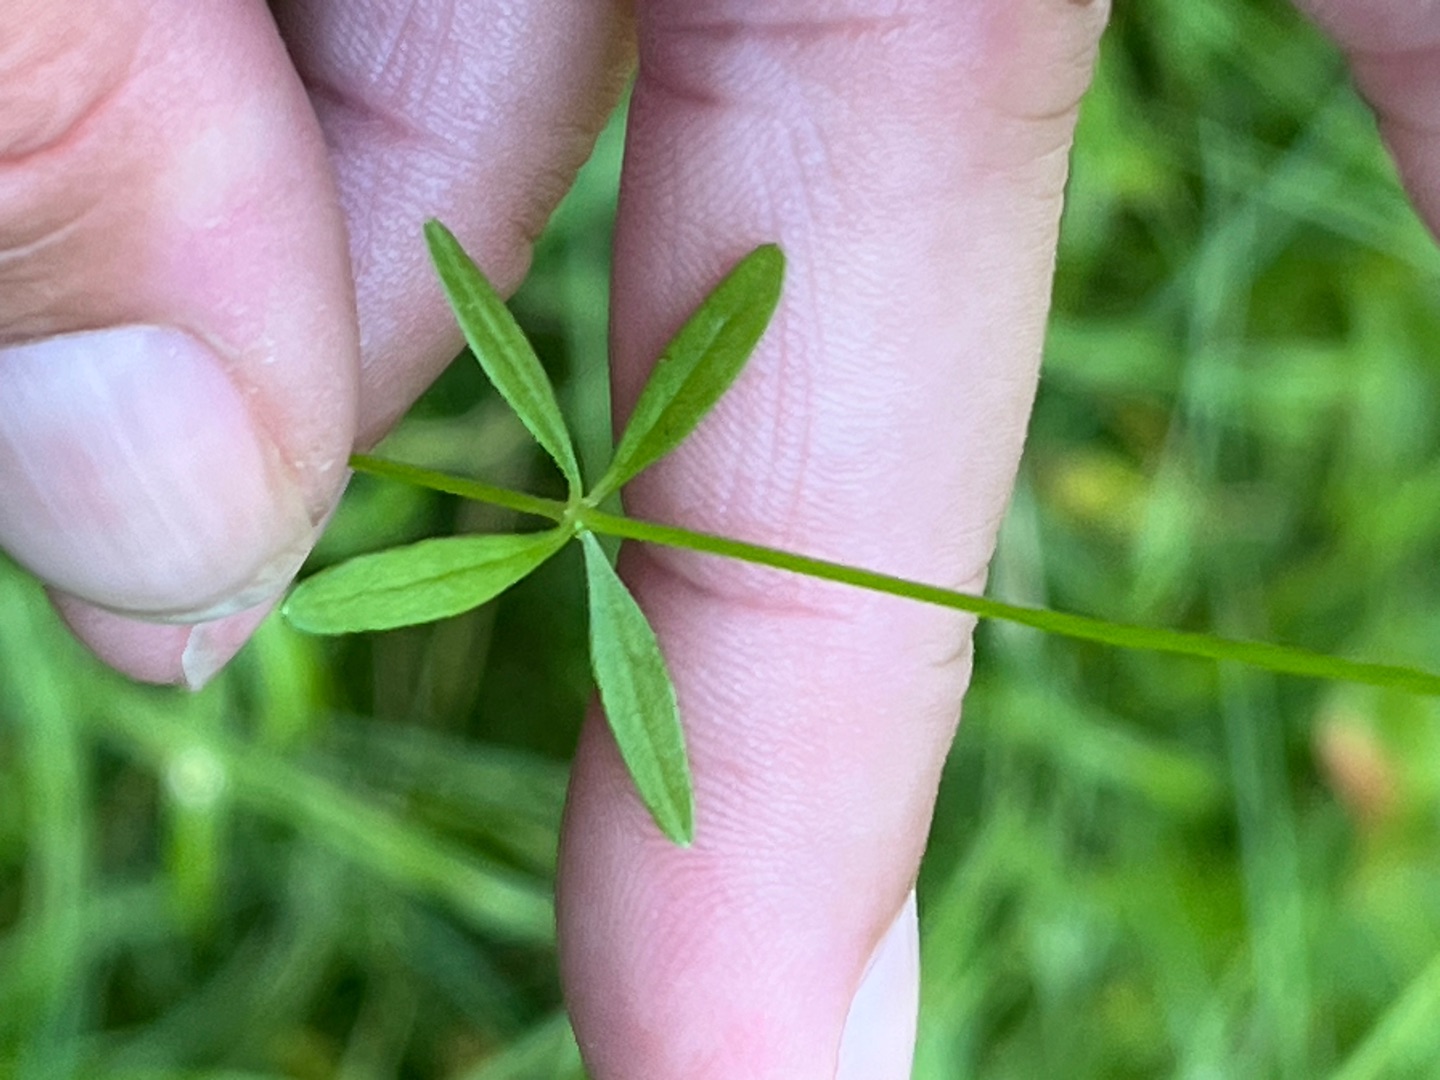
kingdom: Plantae
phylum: Tracheophyta
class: Magnoliopsida
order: Gentianales
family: Rubiaceae
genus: Galium
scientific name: Galium palustre
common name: Kær-snerre
